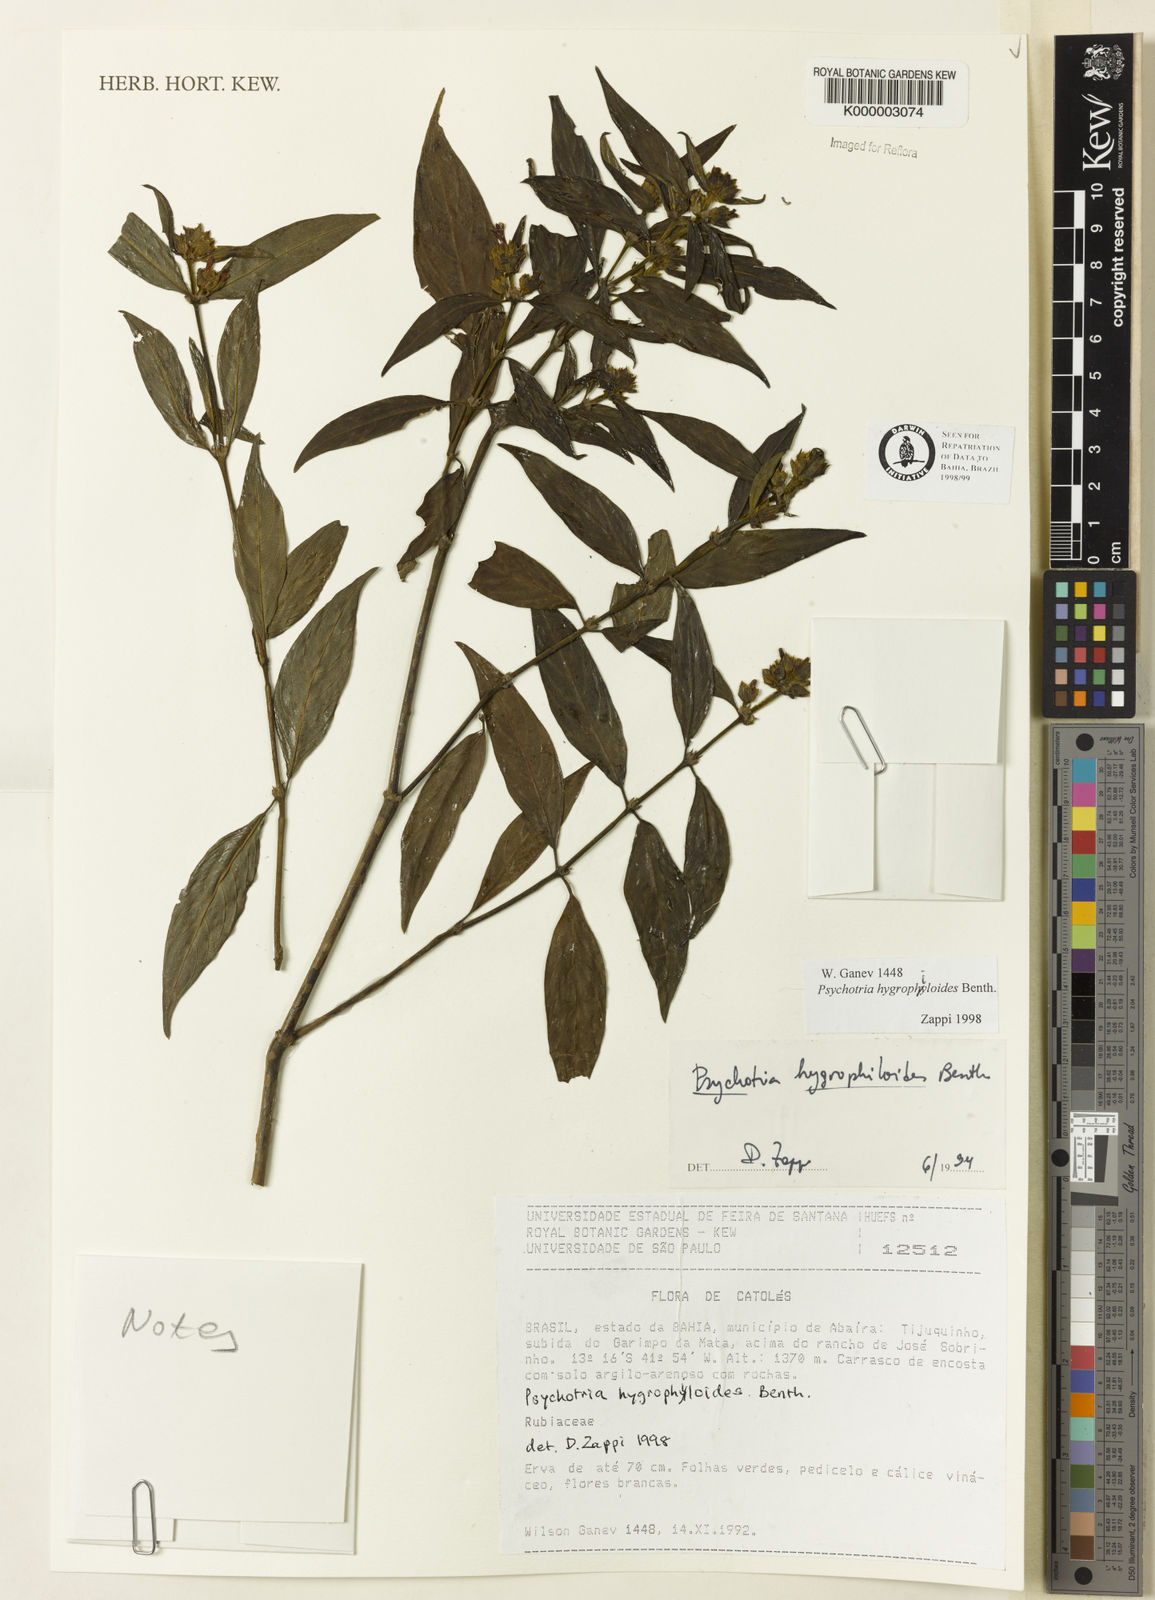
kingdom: Plantae
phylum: Tracheophyta
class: Magnoliopsida
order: Gentianales
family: Rubiaceae
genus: Psychotria
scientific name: Psychotria stachyoides
